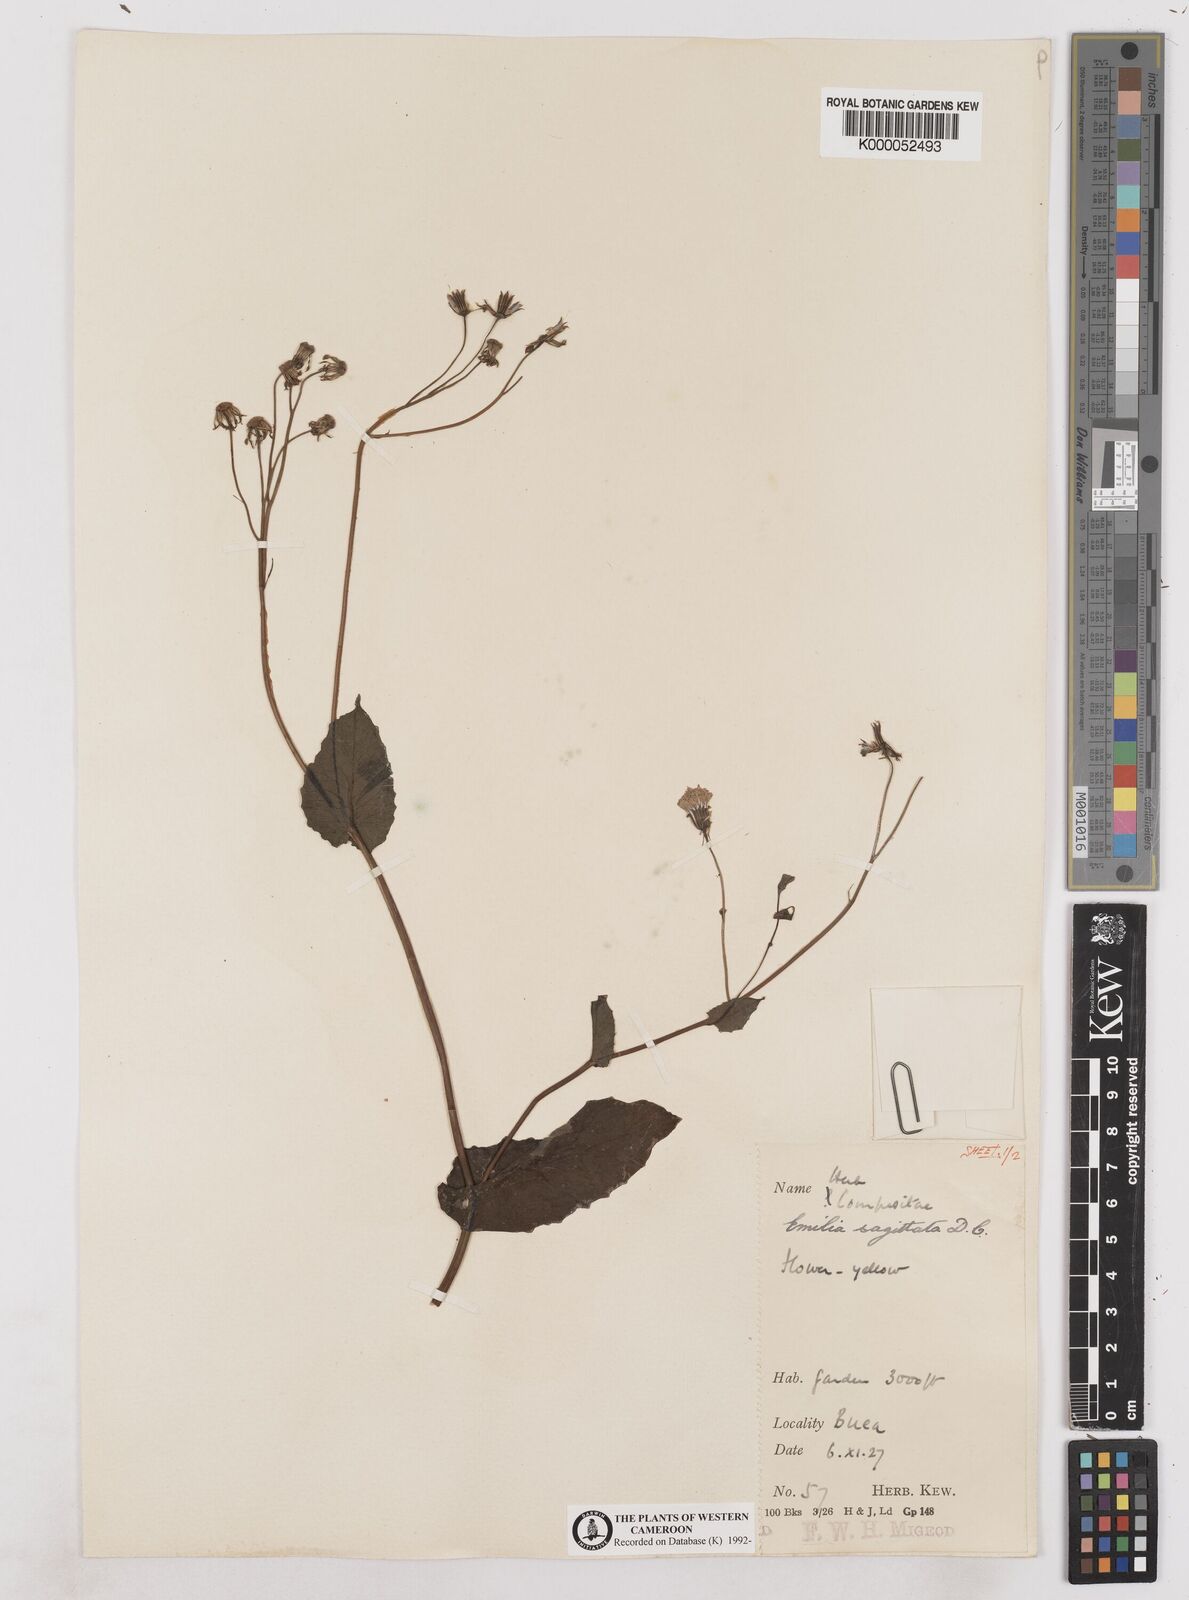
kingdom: Plantae
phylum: Tracheophyta
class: Magnoliopsida
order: Asterales
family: Asteraceae
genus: Emilia
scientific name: Emilia
